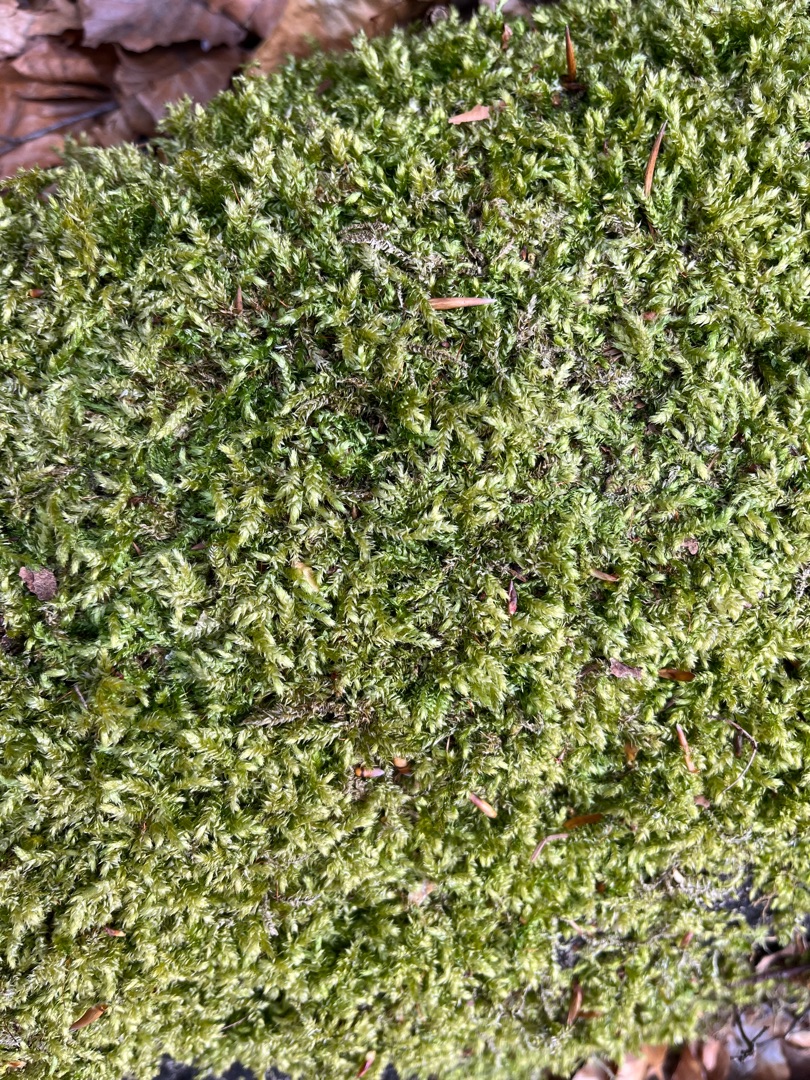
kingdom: Plantae
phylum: Bryophyta
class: Bryopsida
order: Hypnales
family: Brachytheciaceae
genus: Brachythecium
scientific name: Brachythecium rutabulum
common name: Almindelig kortkapsel
